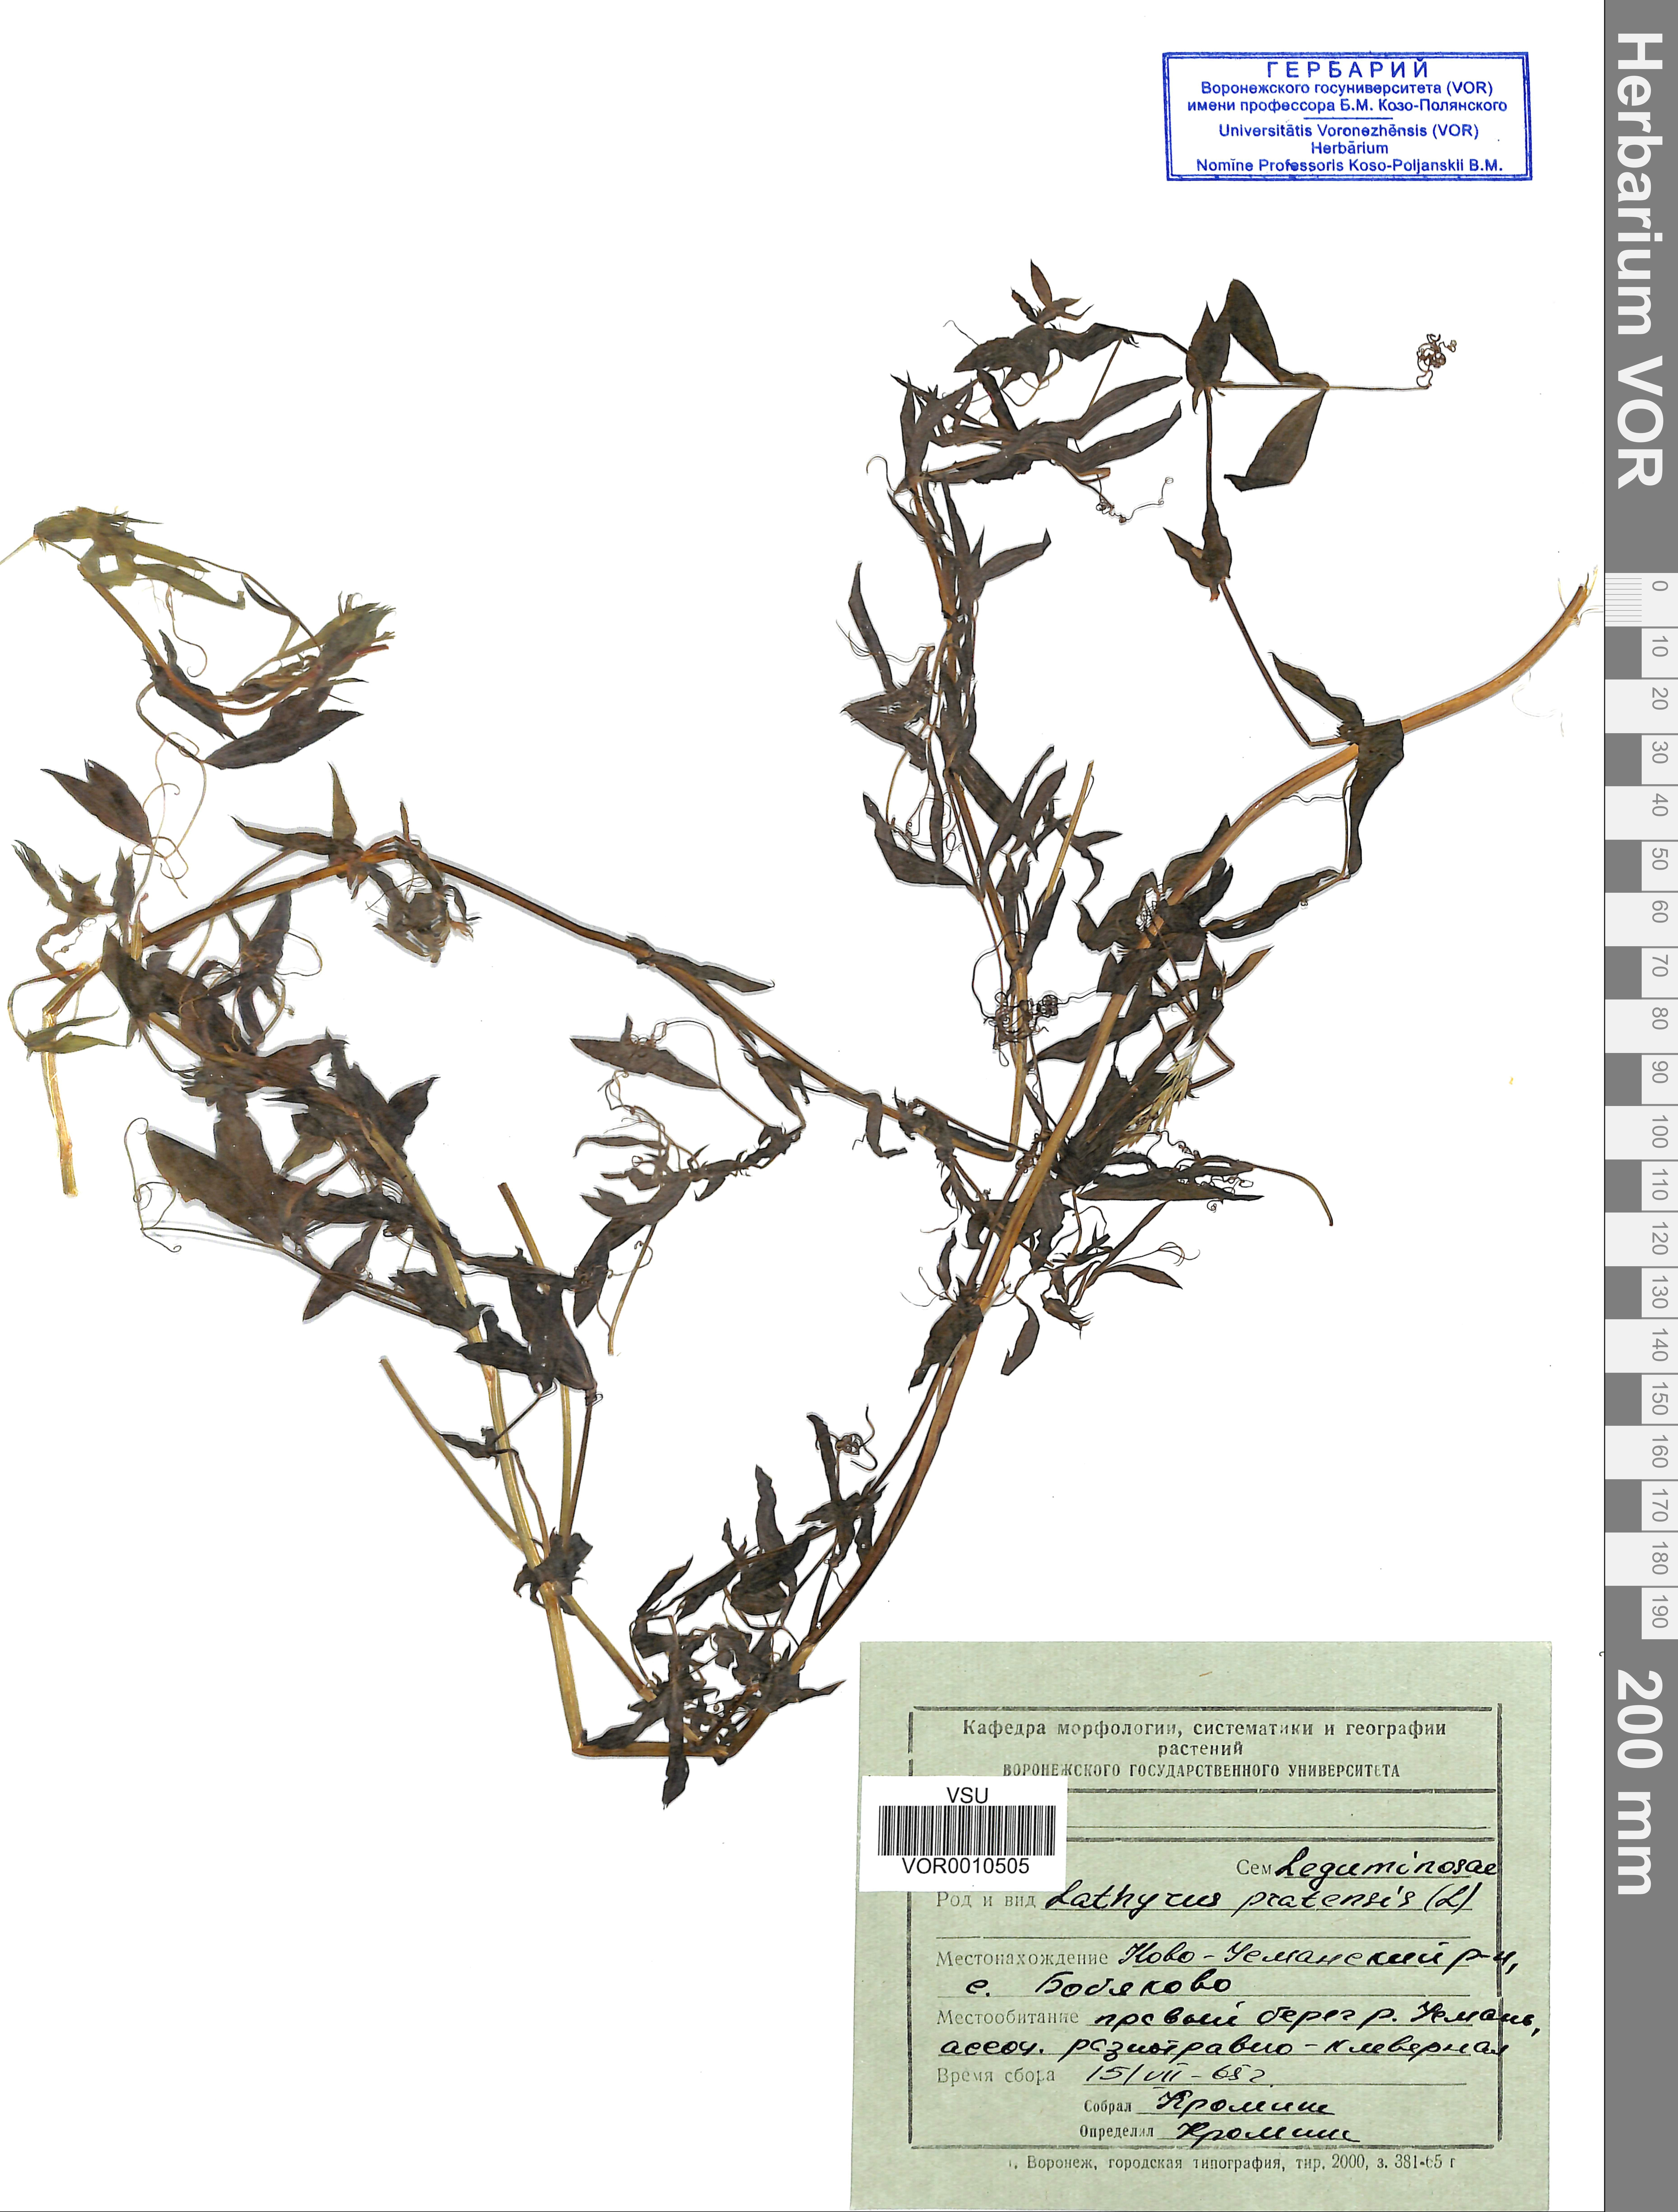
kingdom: Plantae
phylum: Tracheophyta
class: Magnoliopsida
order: Fabales
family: Fabaceae
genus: Lathyrus
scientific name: Lathyrus palustris
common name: Marsh pea
